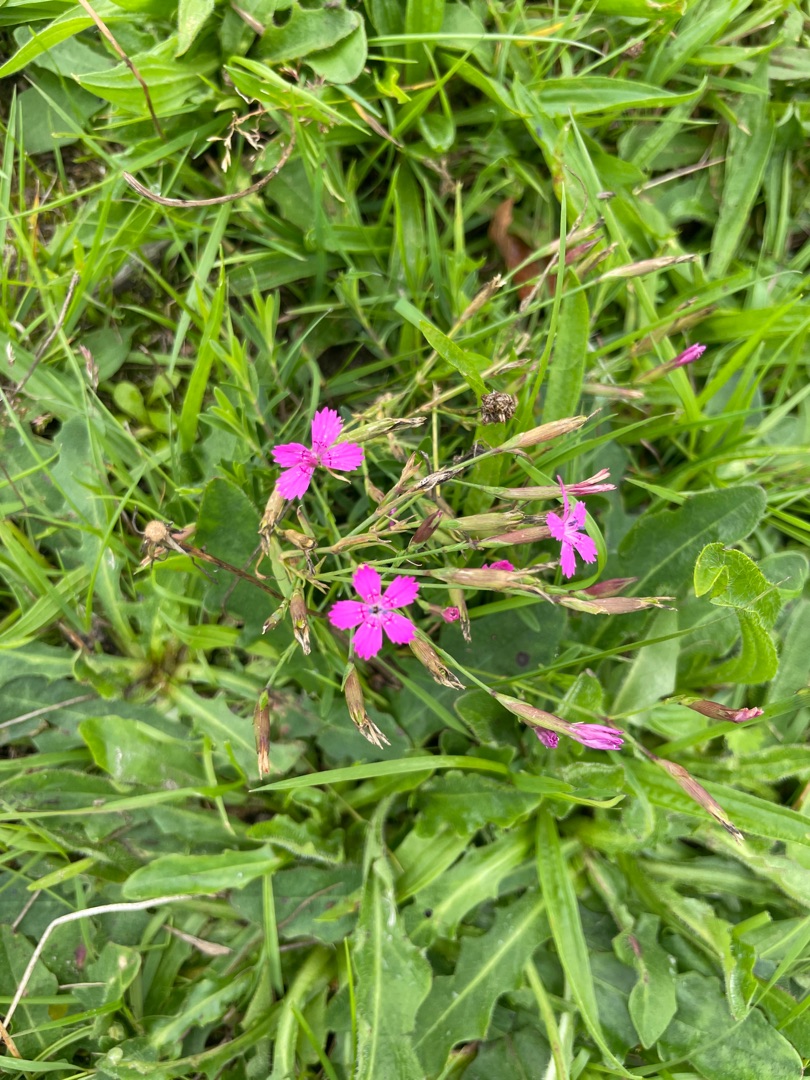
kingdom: Plantae
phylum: Tracheophyta
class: Magnoliopsida
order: Caryophyllales
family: Caryophyllaceae
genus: Dianthus
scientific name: Dianthus deltoides
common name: Bakke-nellike
